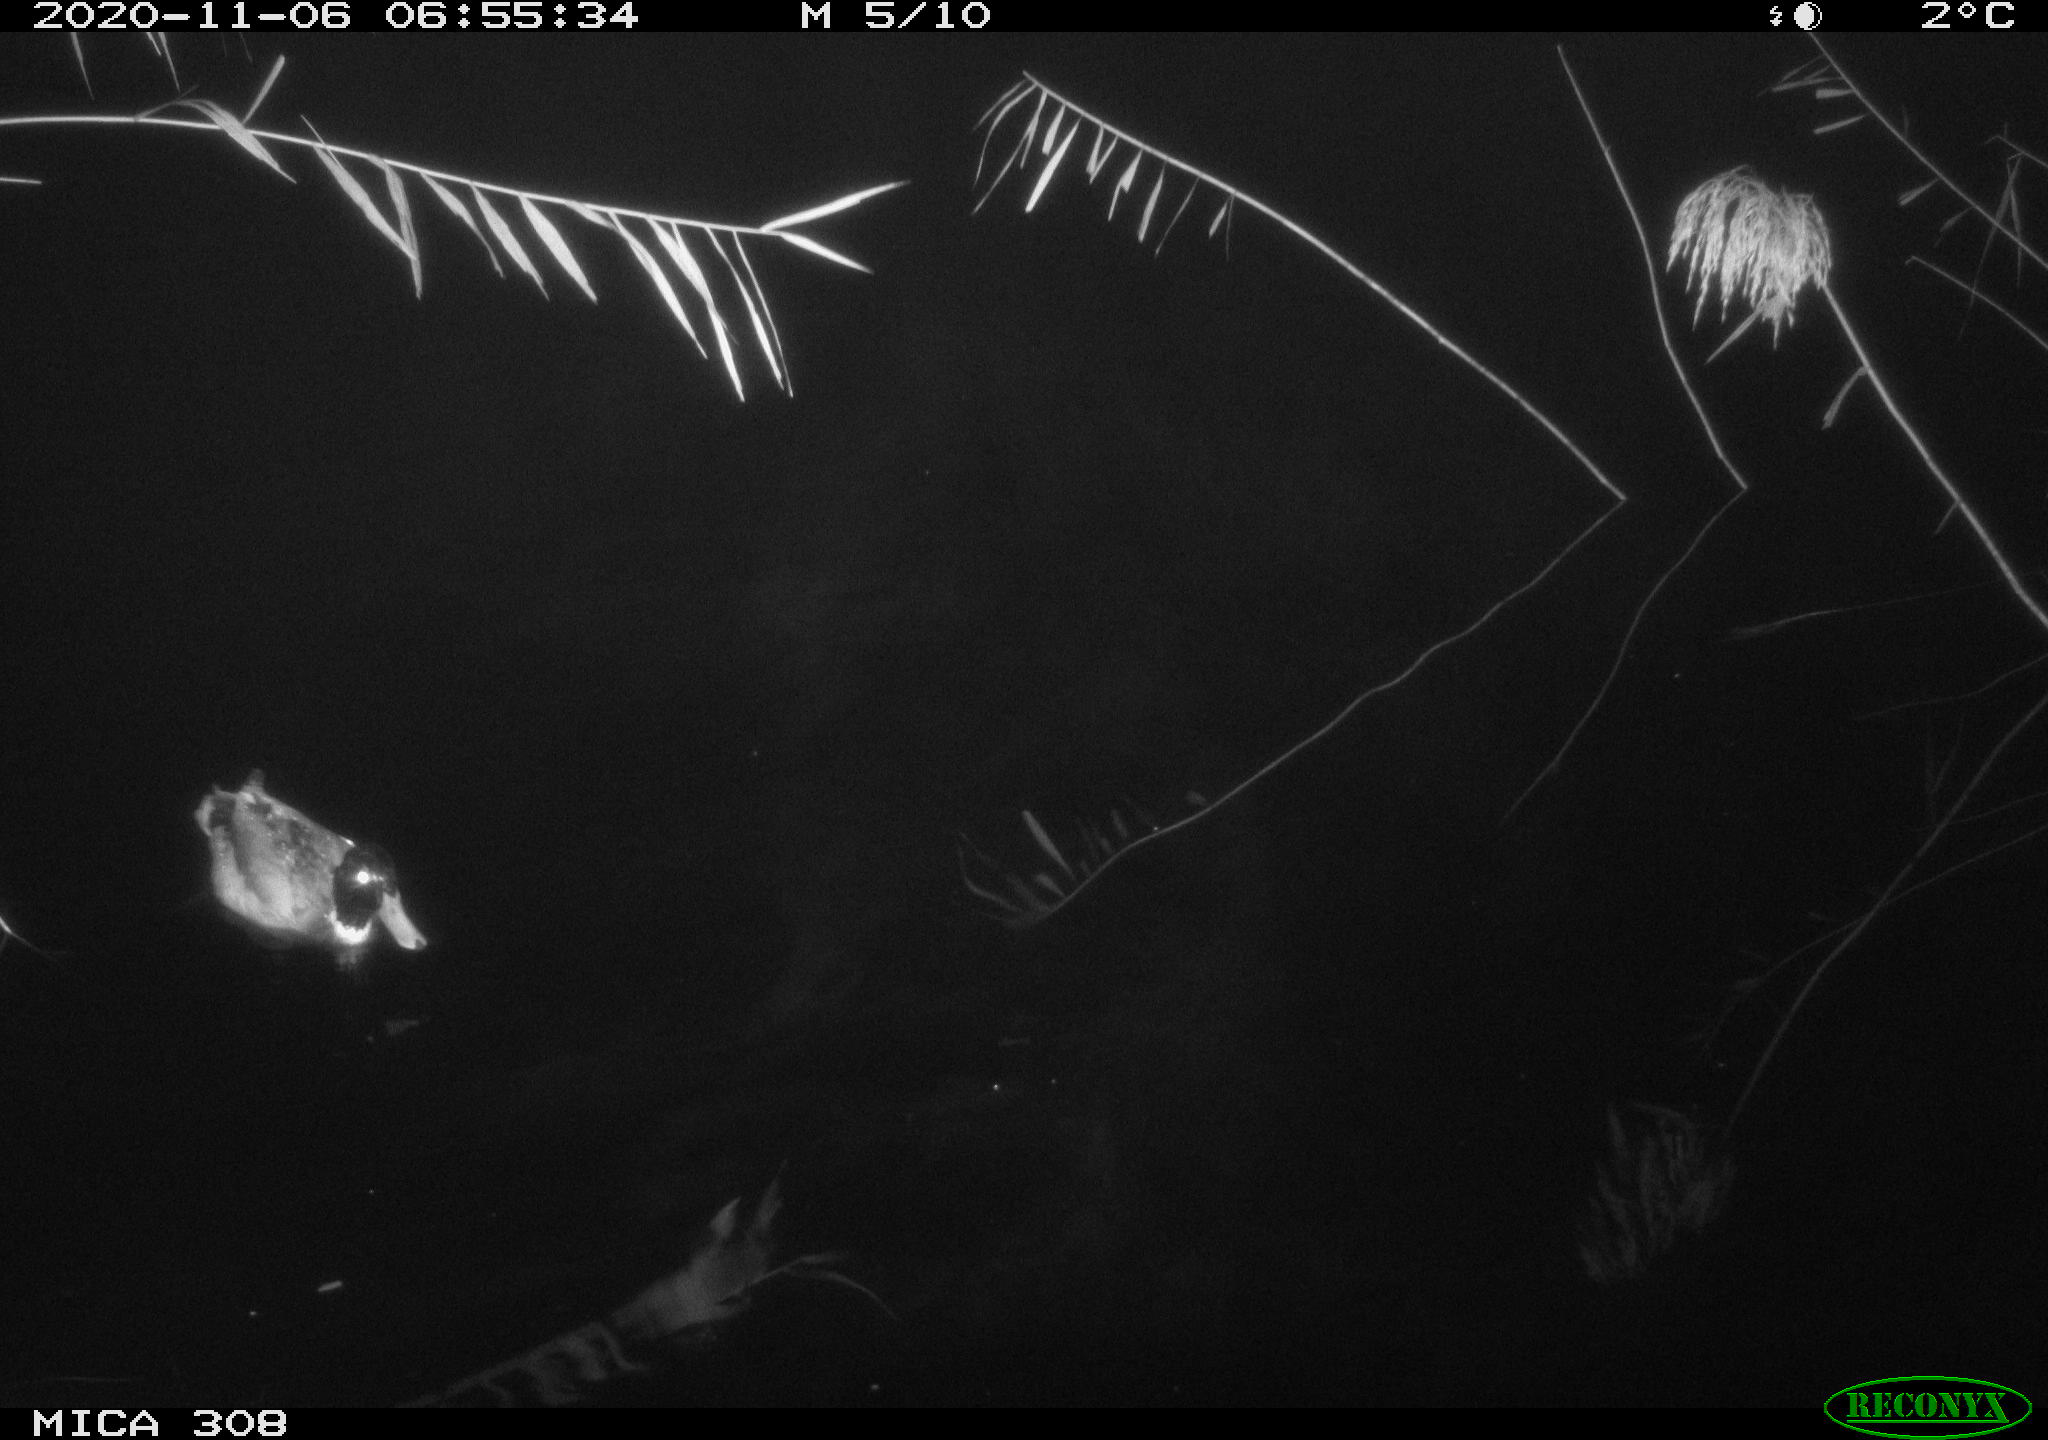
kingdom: Animalia
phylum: Chordata
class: Aves
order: Anseriformes
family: Anatidae
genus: Anas
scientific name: Anas platyrhynchos
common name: Mallard
